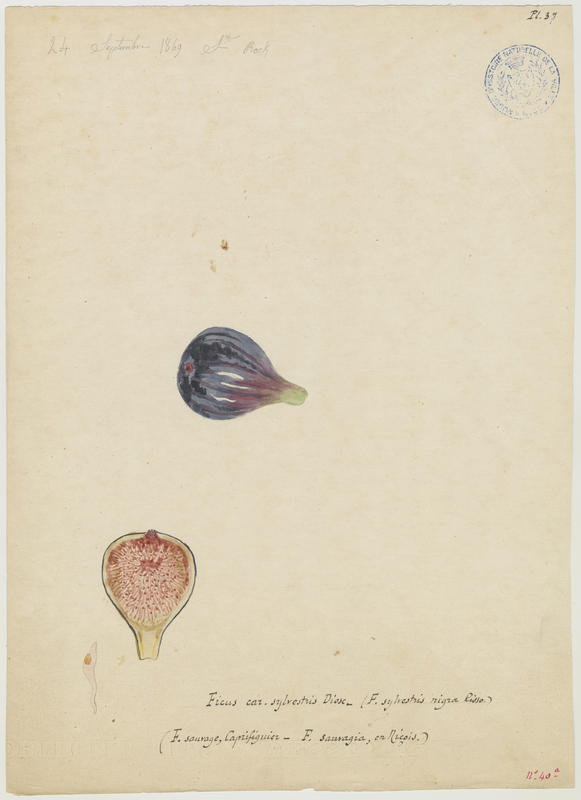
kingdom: Plantae
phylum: Tracheophyta
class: Magnoliopsida
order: Rosales
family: Moraceae
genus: Ficus
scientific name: Ficus carica
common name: Fig
